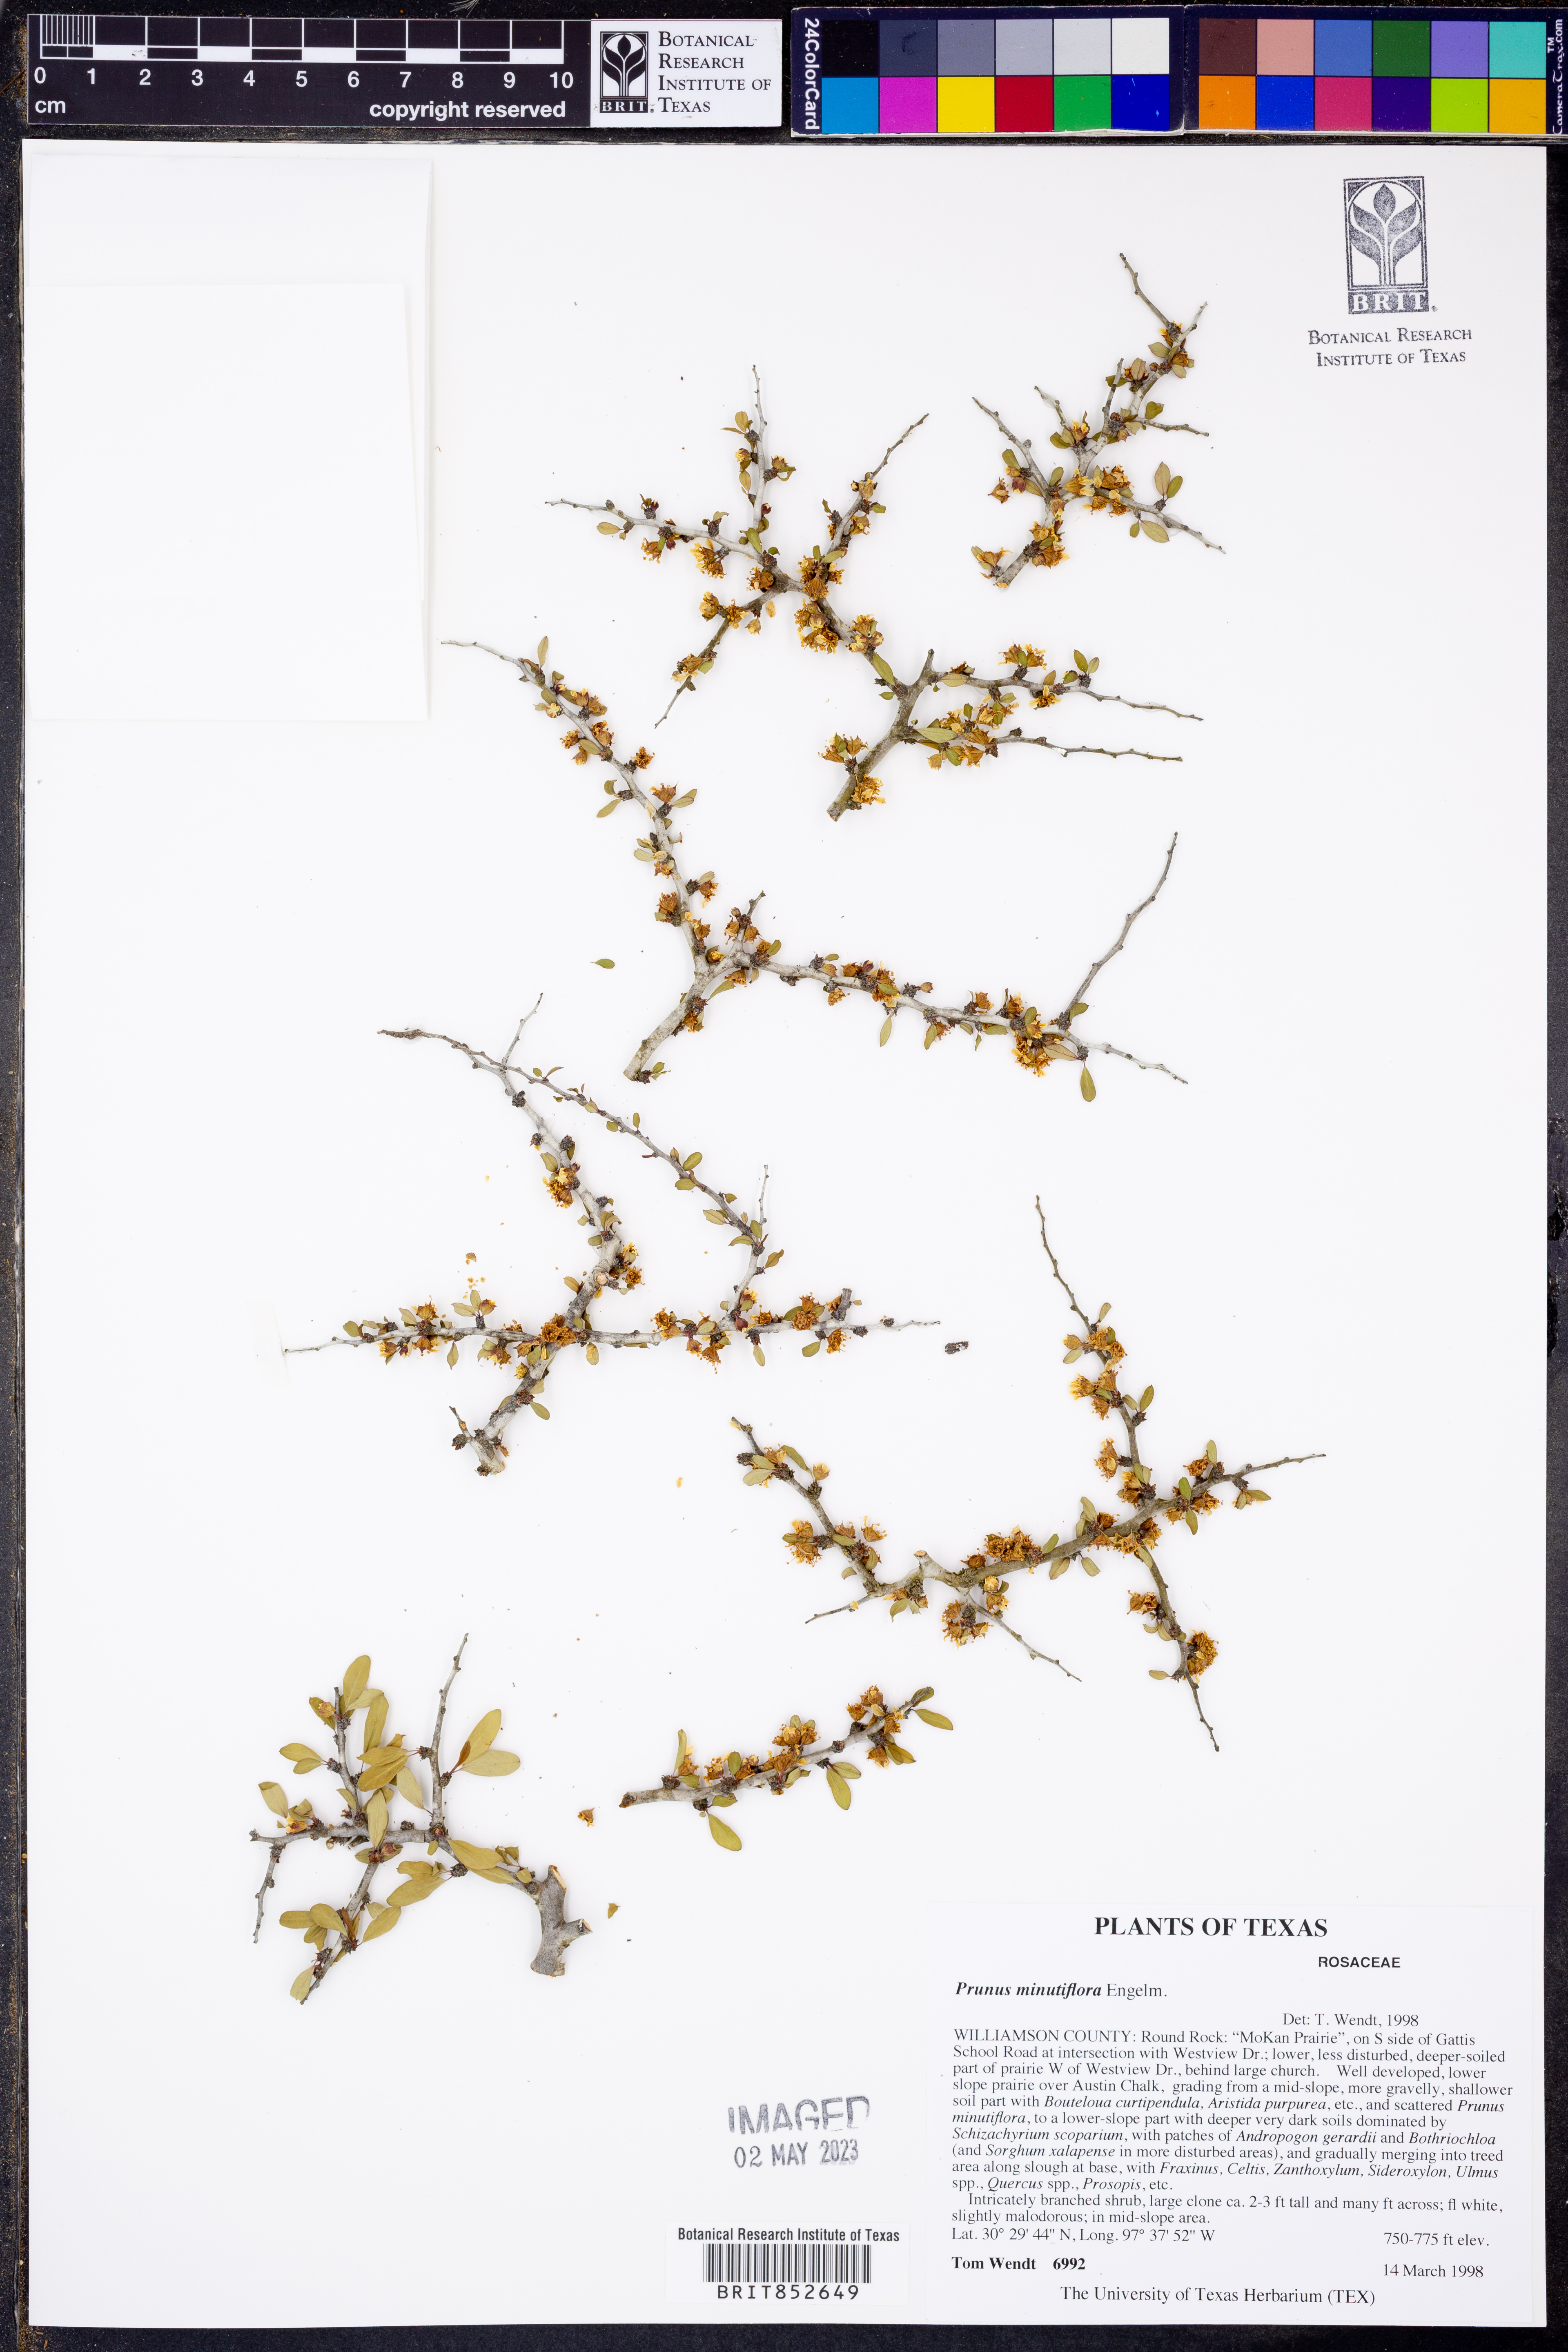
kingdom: Plantae
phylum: Tracheophyta
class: Magnoliopsida
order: Rosales
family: Rosaceae
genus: Prunus
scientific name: Prunus minutiflora
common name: Texas almond
